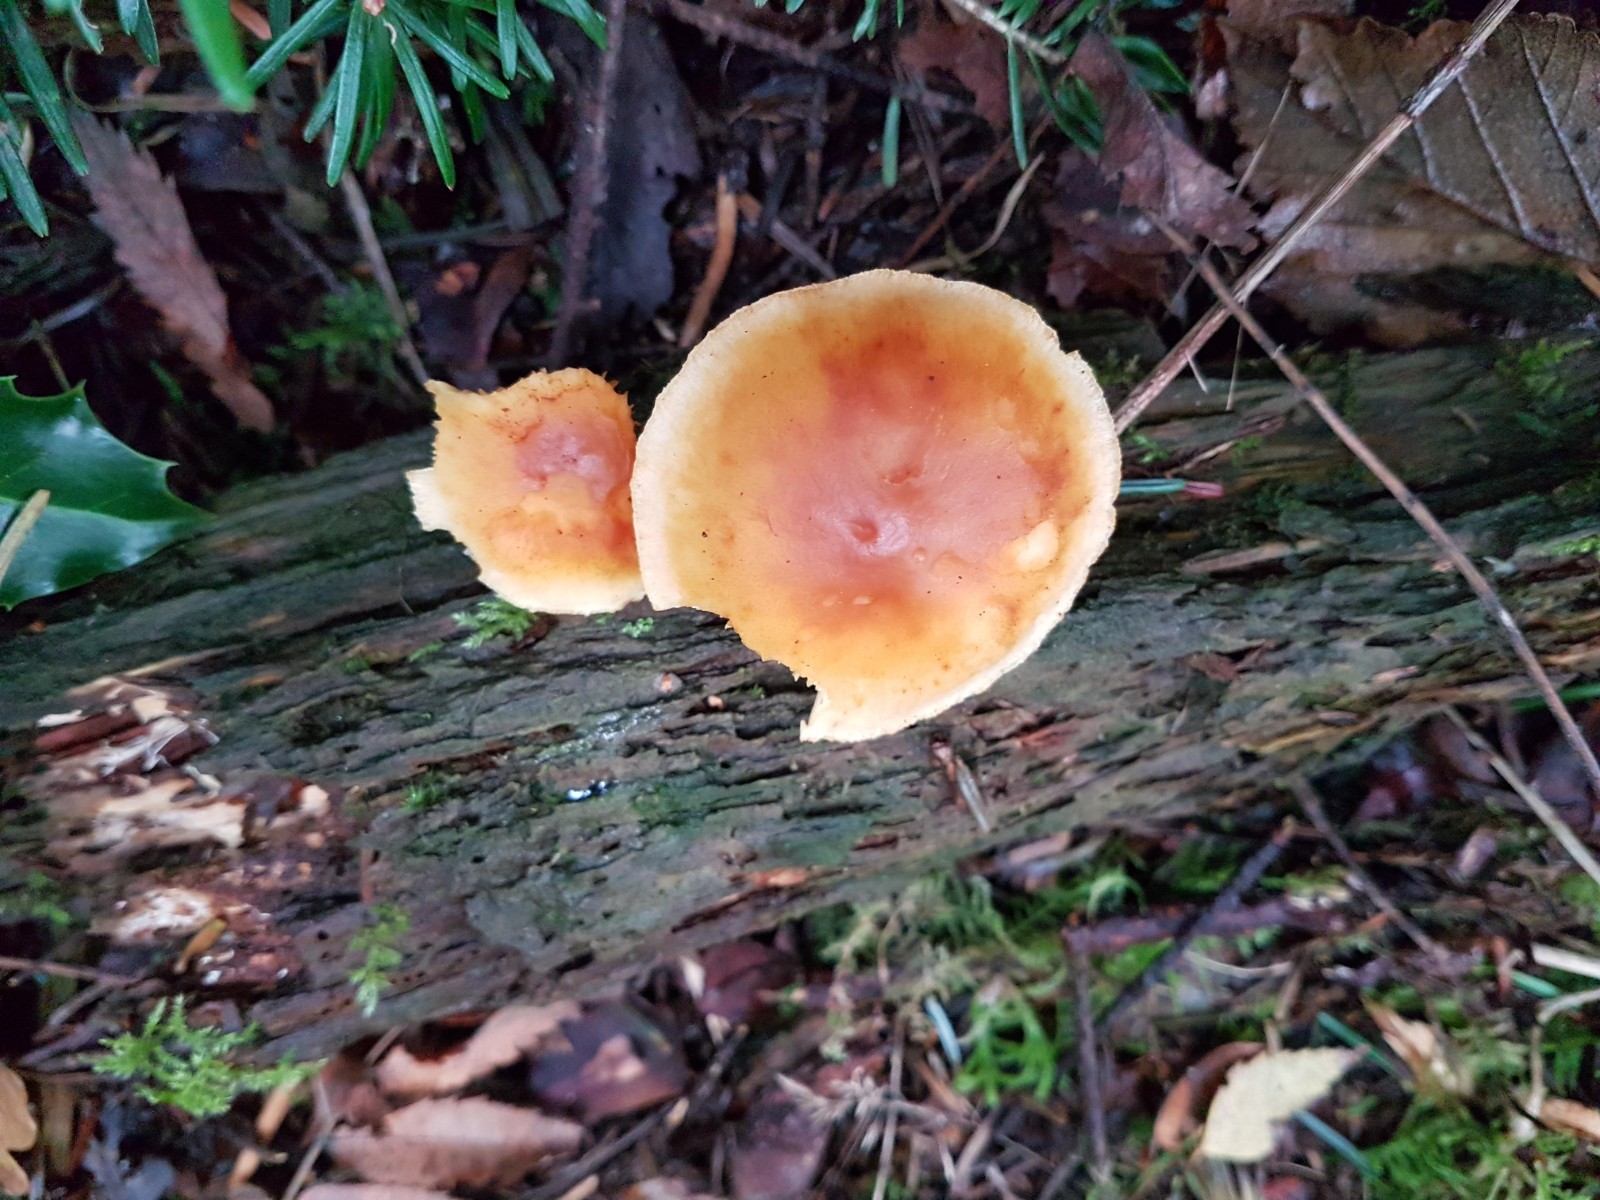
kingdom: Fungi
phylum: Basidiomycota
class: Agaricomycetes
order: Agaricales
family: Hymenogastraceae
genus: Gymnopilus
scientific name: Gymnopilus penetrans
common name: plettet flammehat
